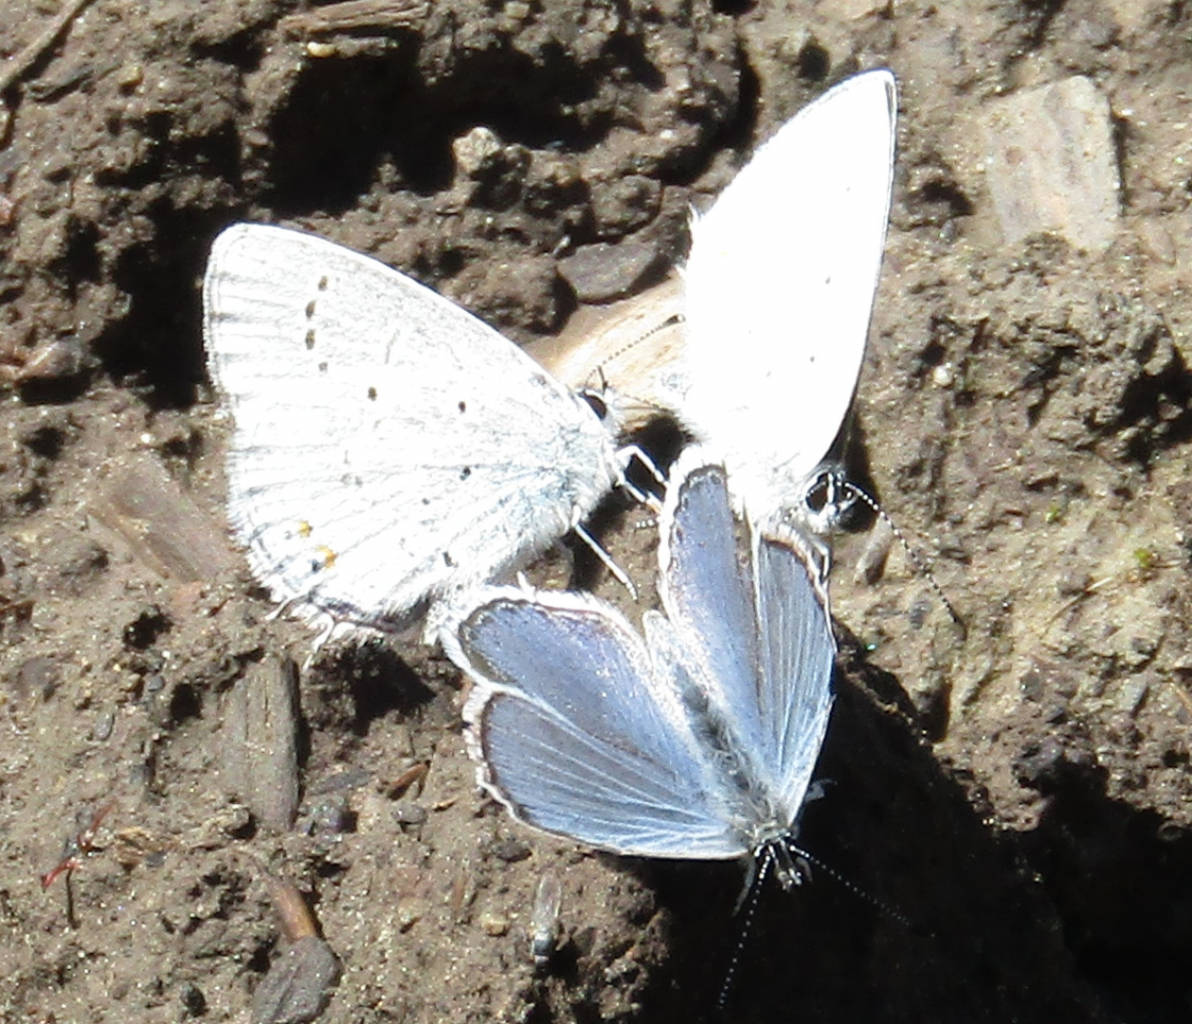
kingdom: Animalia
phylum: Arthropoda
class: Insecta
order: Lepidoptera
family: Lycaenidae
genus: Elkalyce
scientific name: Elkalyce amyntula
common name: Western Tailed-Blue
